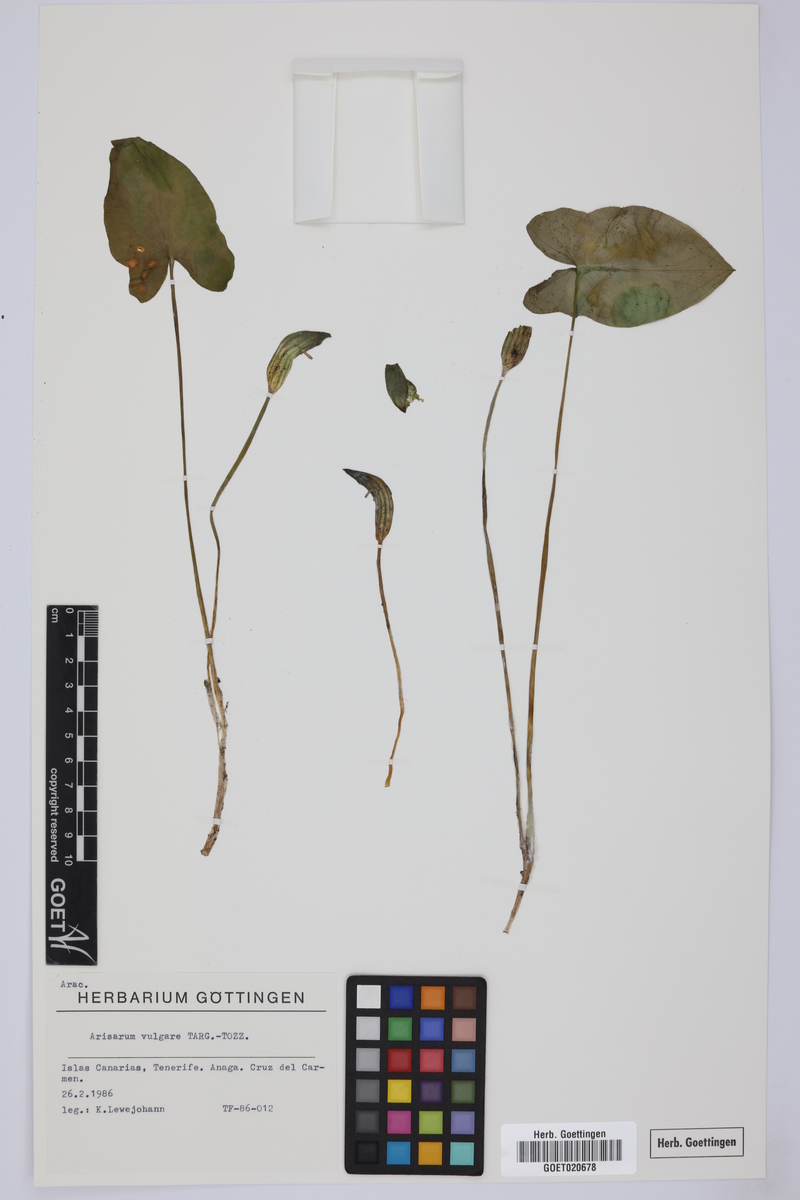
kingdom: Plantae
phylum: Tracheophyta
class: Liliopsida
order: Alismatales
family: Araceae
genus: Arisarum
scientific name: Arisarum vulgare
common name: Common arisarum
